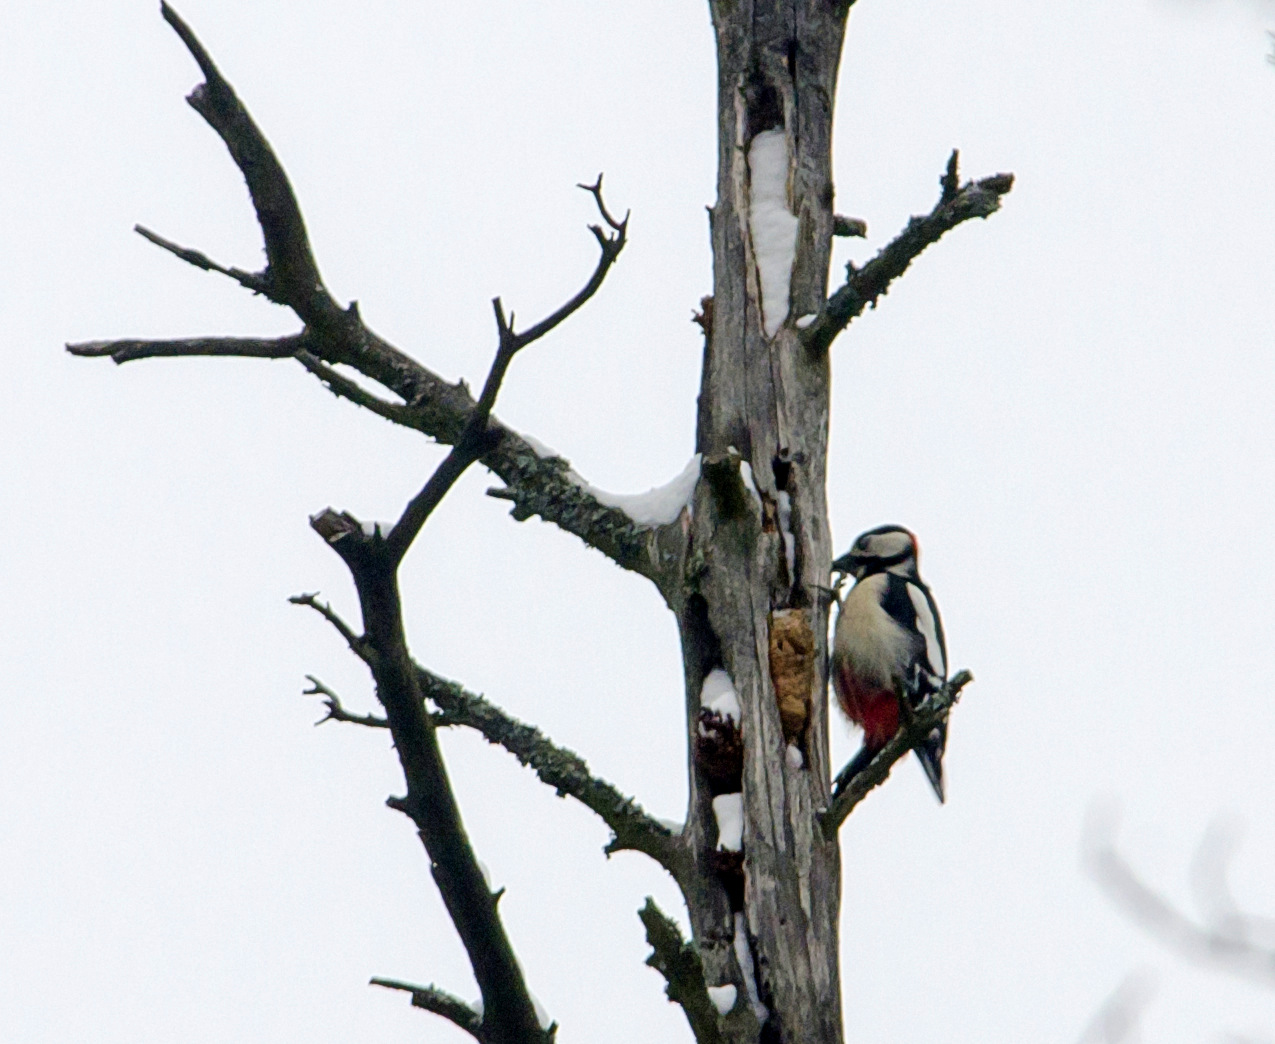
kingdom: Animalia
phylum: Chordata
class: Aves
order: Piciformes
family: Picidae
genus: Dendrocopos
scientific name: Dendrocopos major
